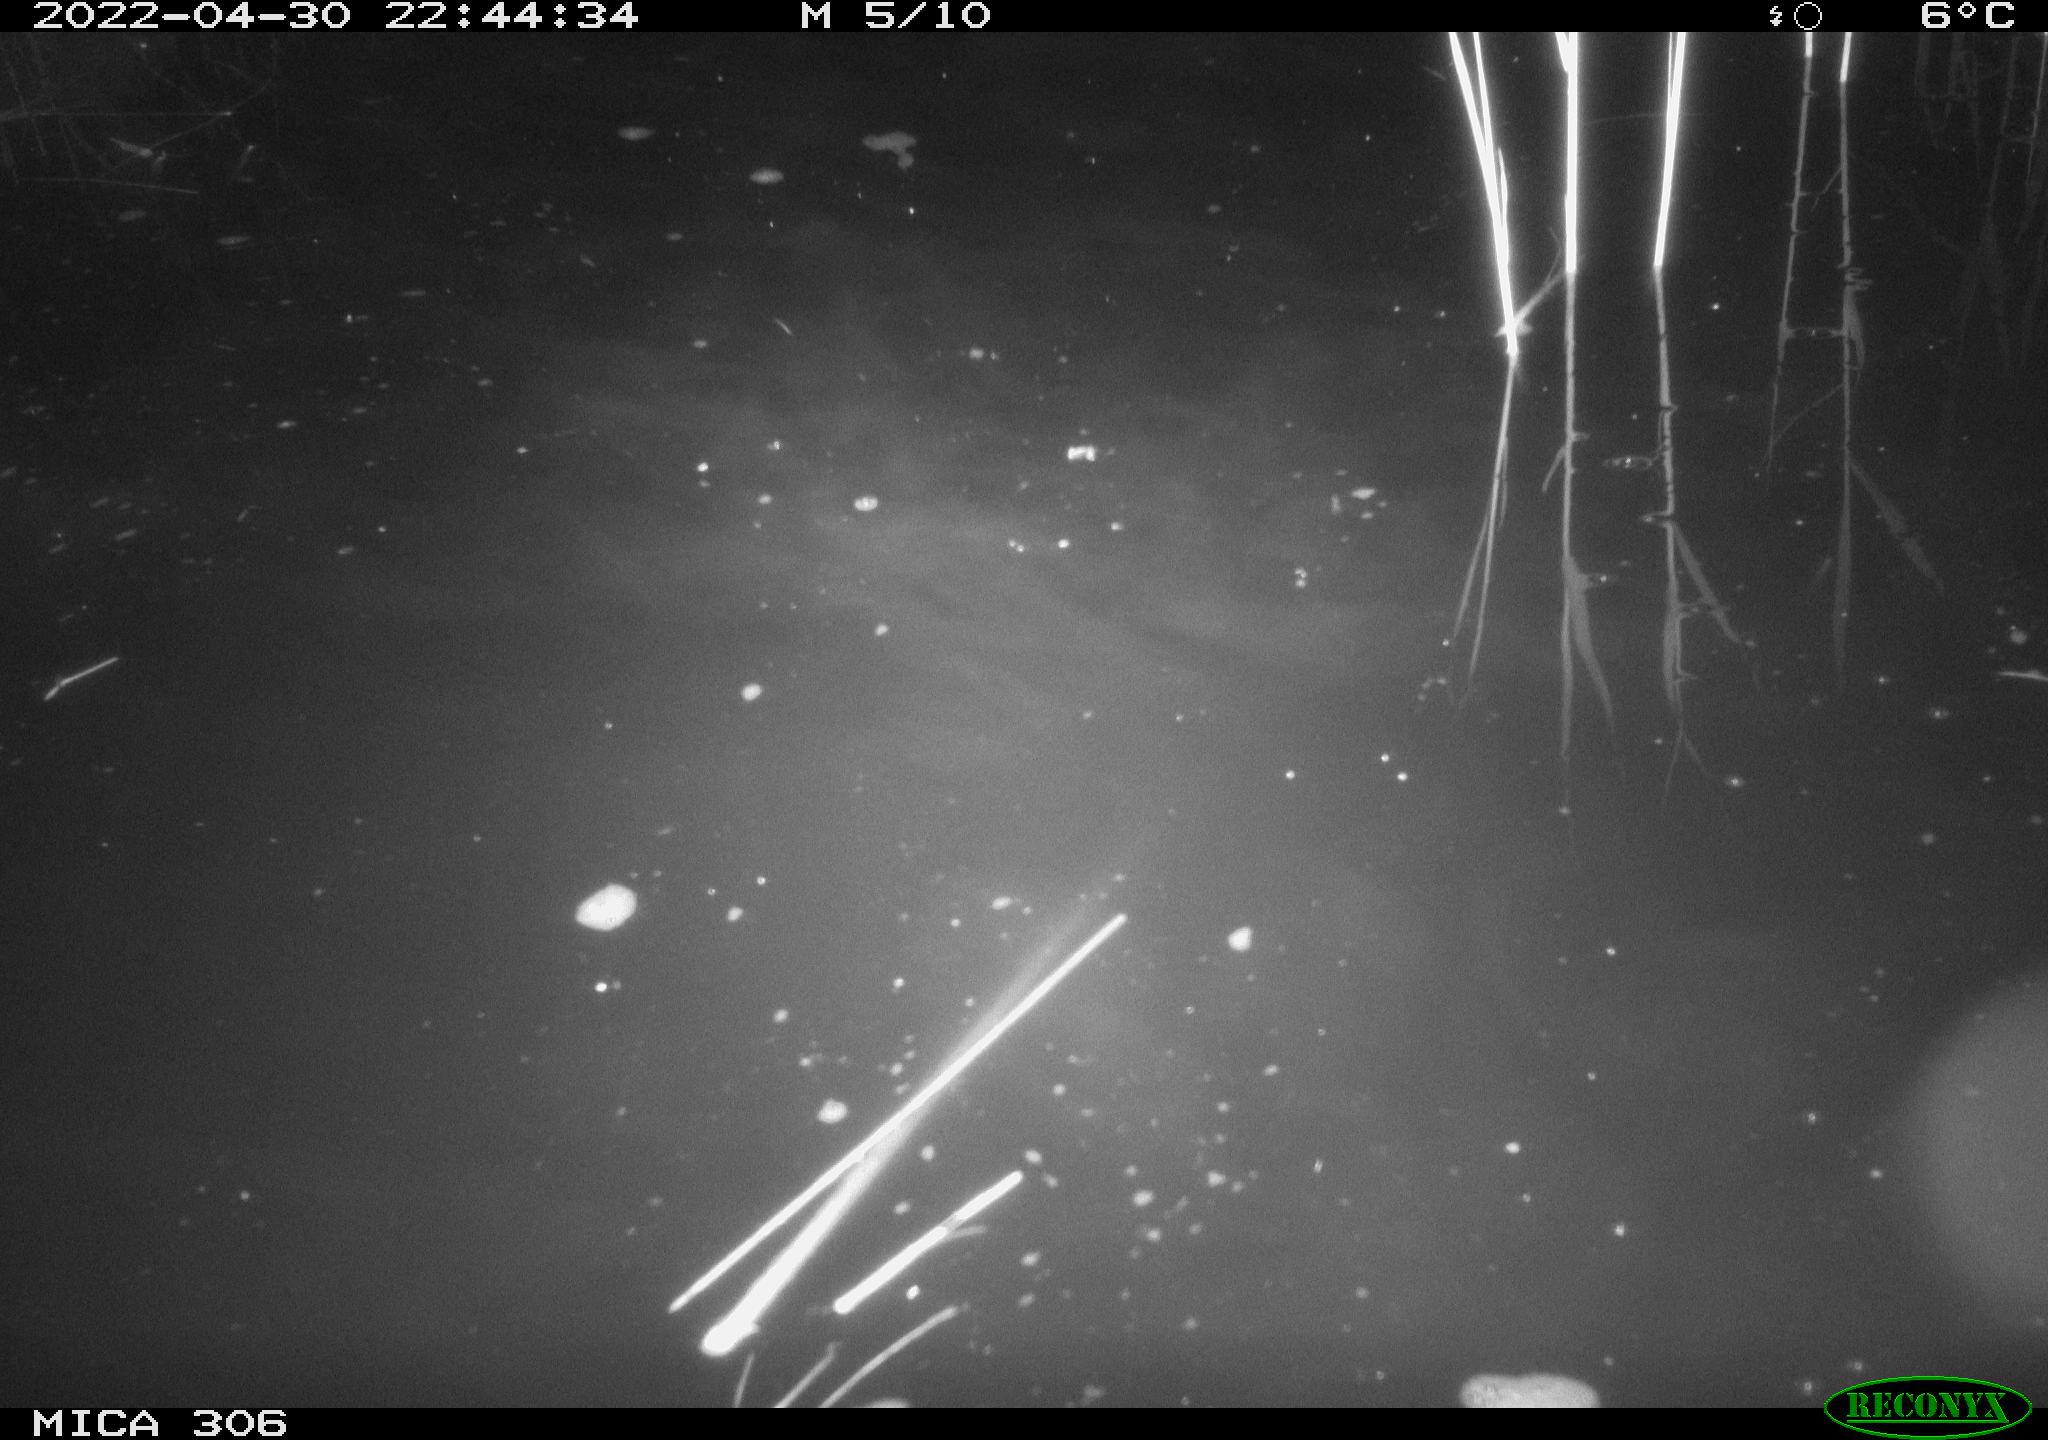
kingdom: Animalia
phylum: Chordata
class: Aves
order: Anseriformes
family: Anatidae
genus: Anas
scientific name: Anas platyrhynchos
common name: Mallard
